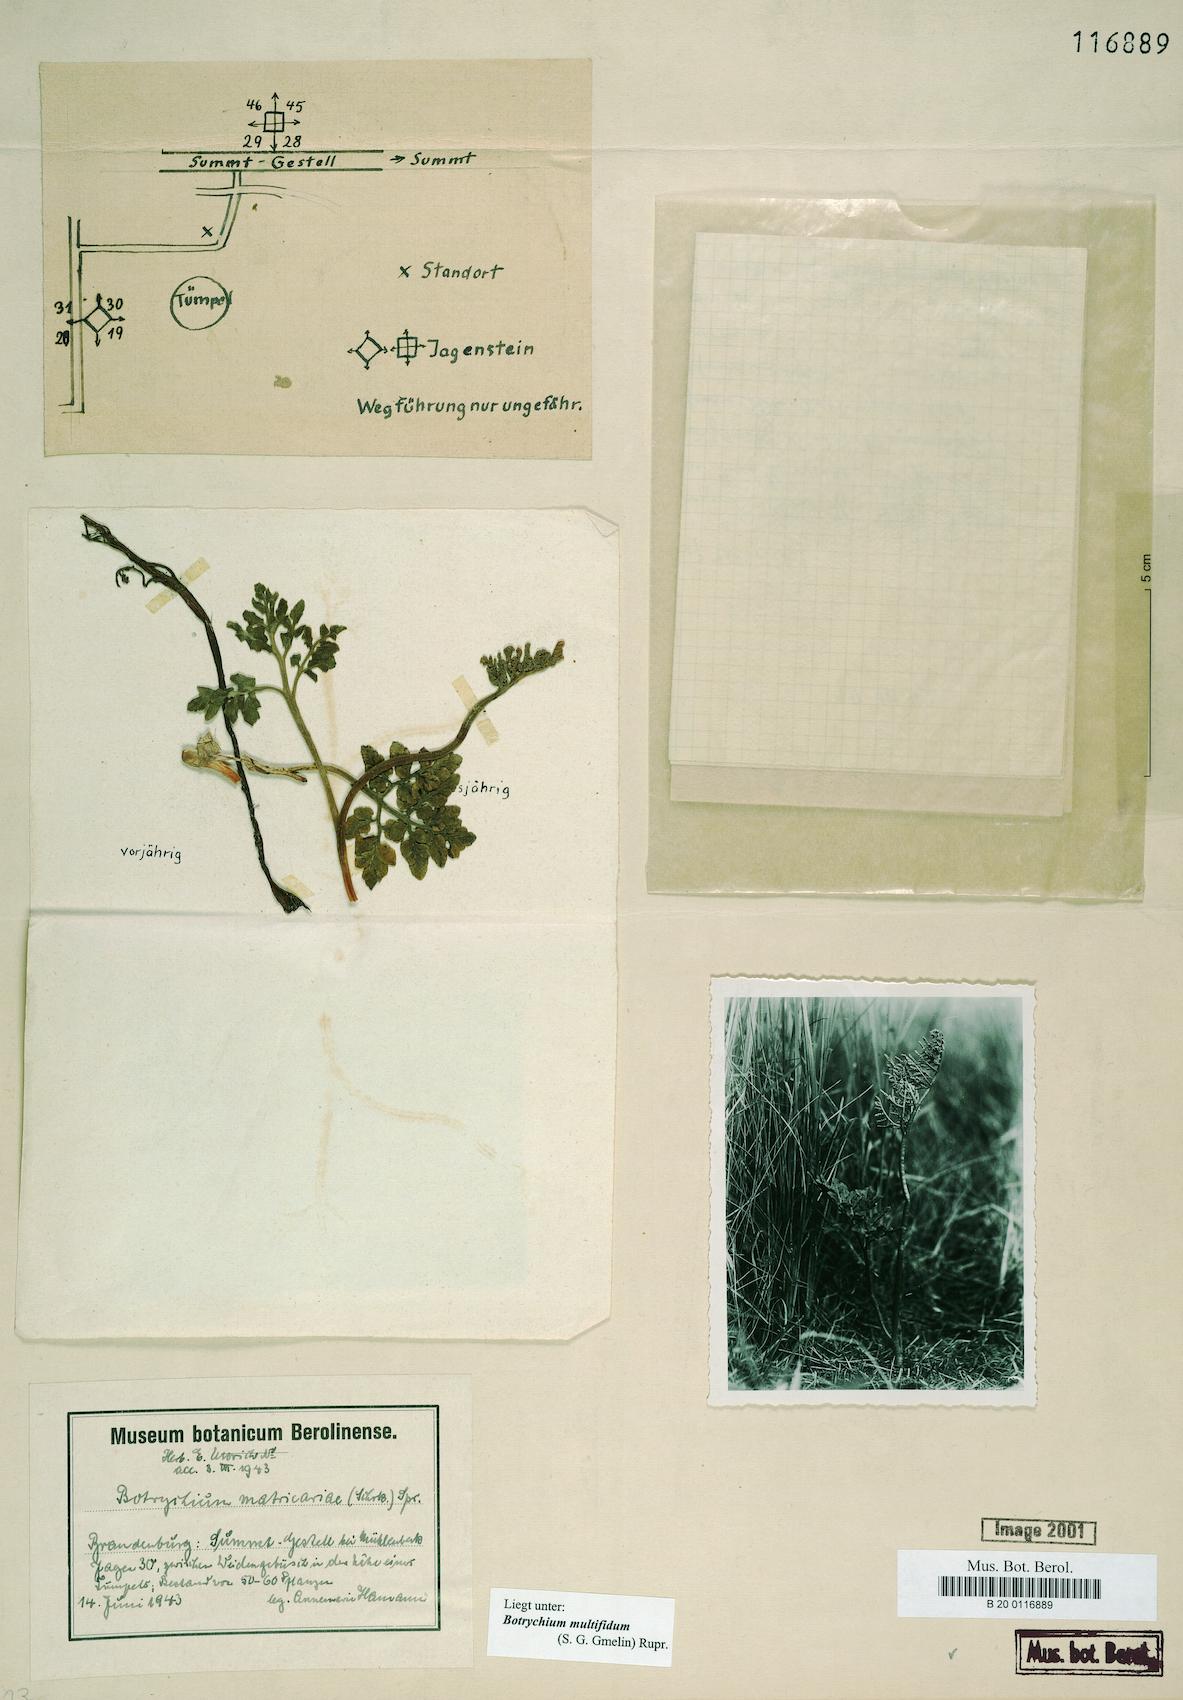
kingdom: Plantae
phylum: Tracheophyta
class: Polypodiopsida
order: Ophioglossales
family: Ophioglossaceae
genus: Sceptridium
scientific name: Sceptridium multifidum
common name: Leathery grape fern
